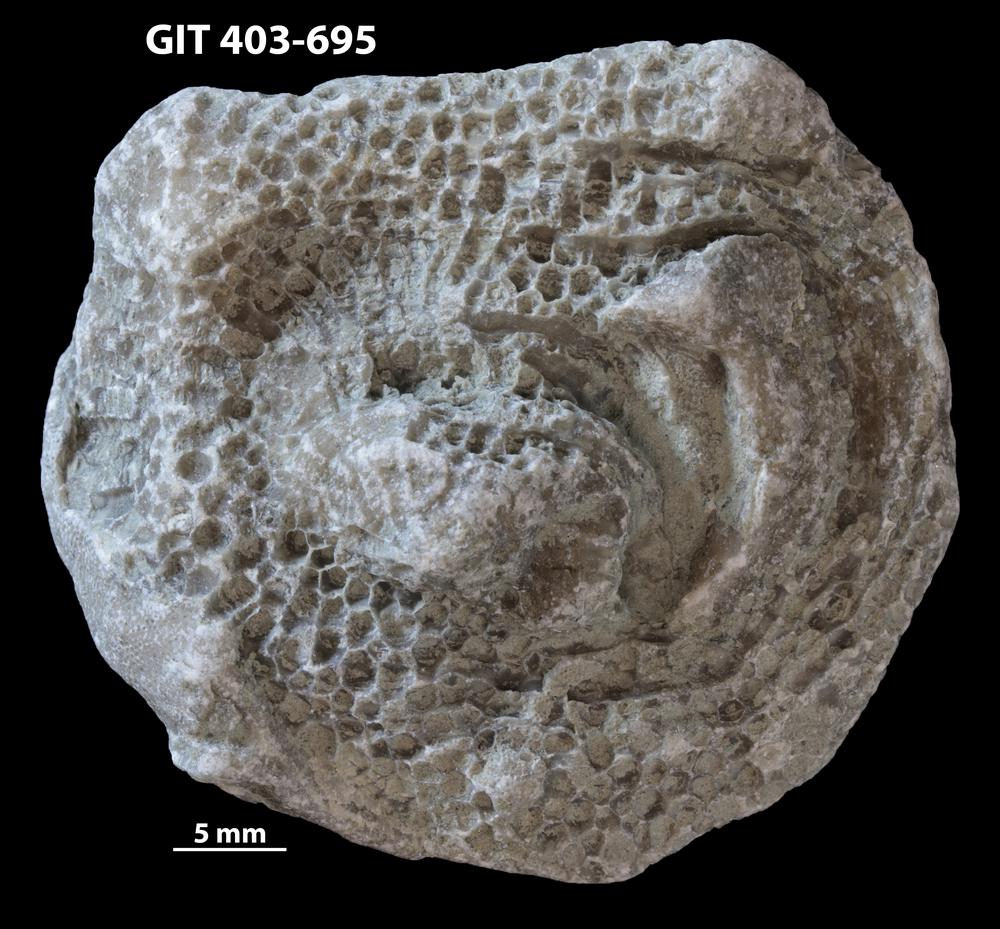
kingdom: Animalia
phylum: Cnidaria
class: Anthozoa
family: Favositidae
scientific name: Favositidae
